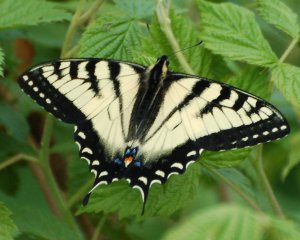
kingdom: Animalia
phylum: Arthropoda
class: Insecta
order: Lepidoptera
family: Papilionidae
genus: Pterourus
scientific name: Pterourus canadensis
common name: Canadian Tiger Swallowtail
